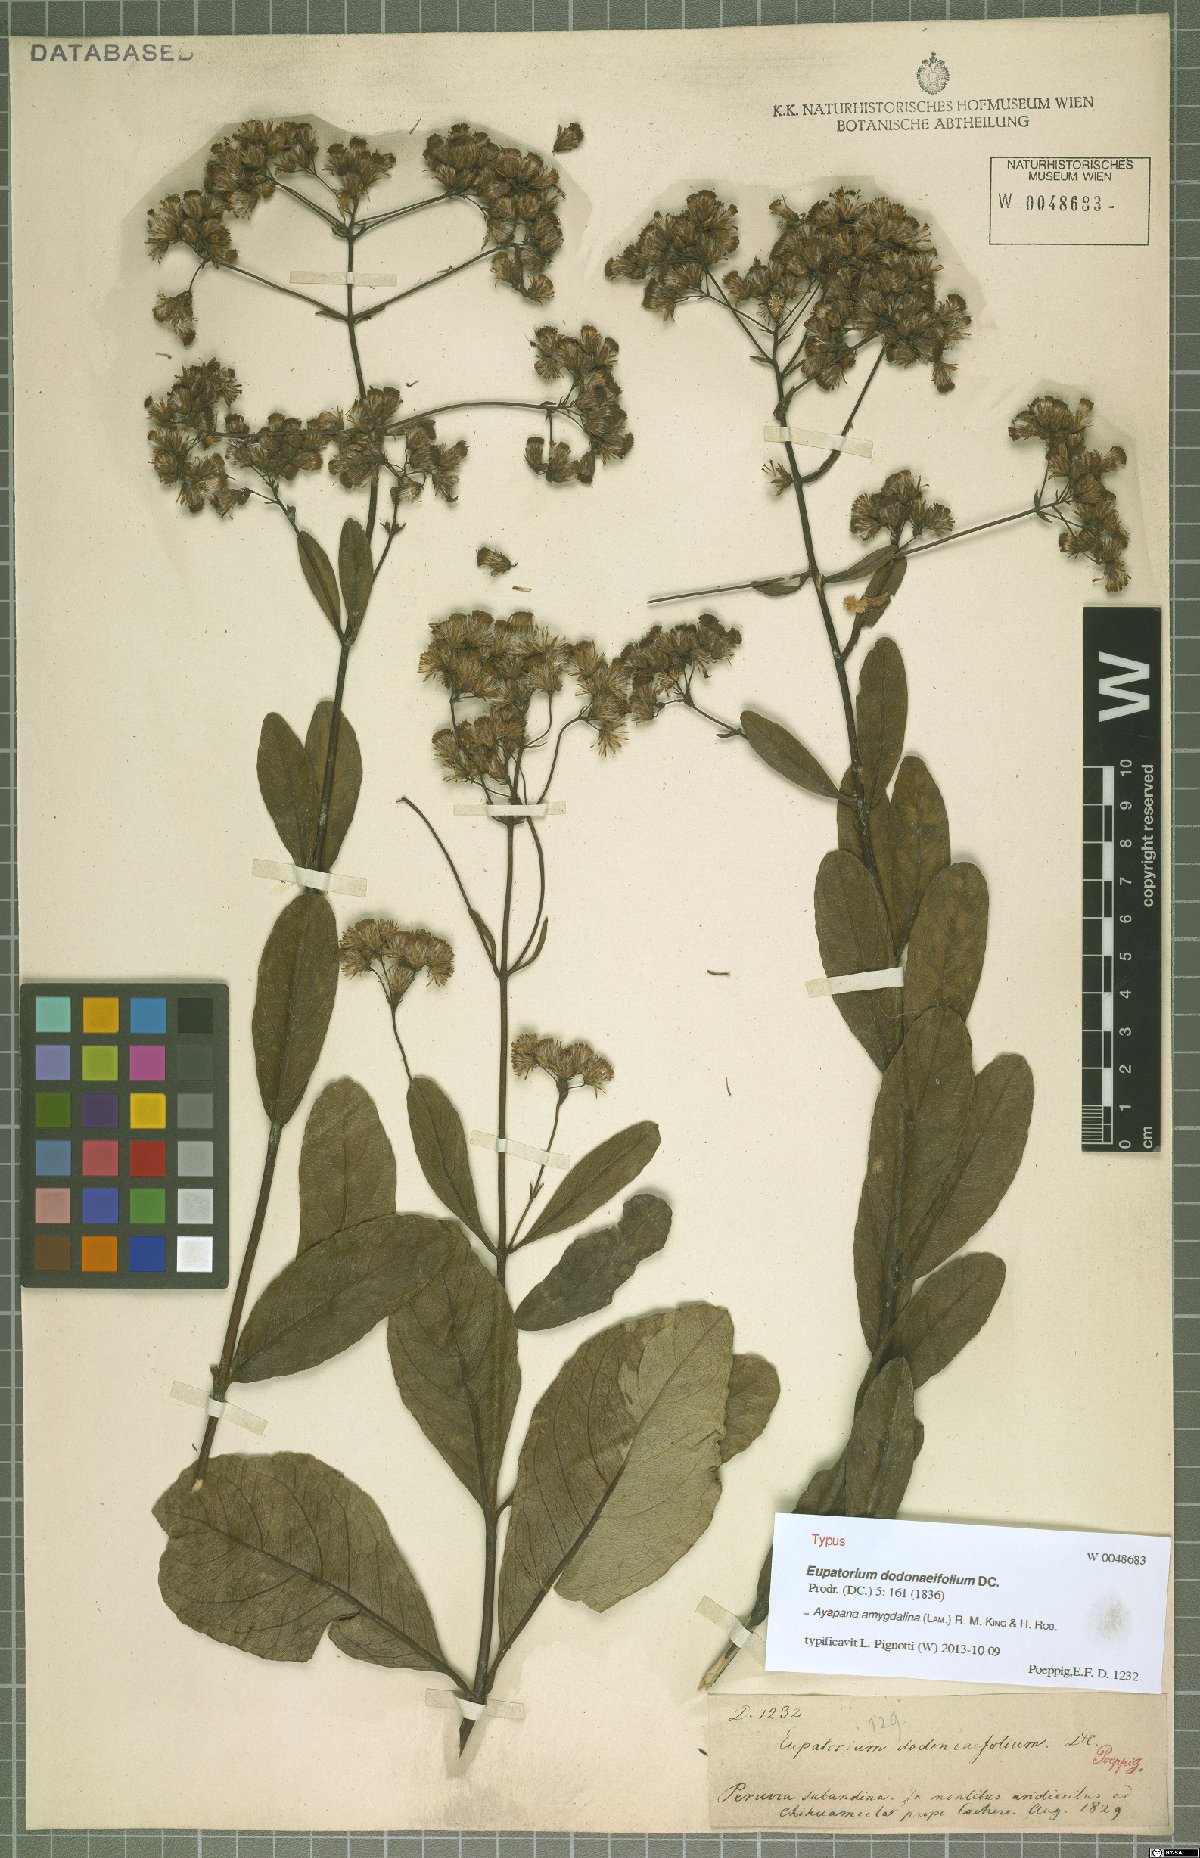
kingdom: Plantae
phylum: Tracheophyta
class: Magnoliopsida
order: Asterales
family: Asteraceae
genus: Ayapana
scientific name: Ayapana amygdalina
